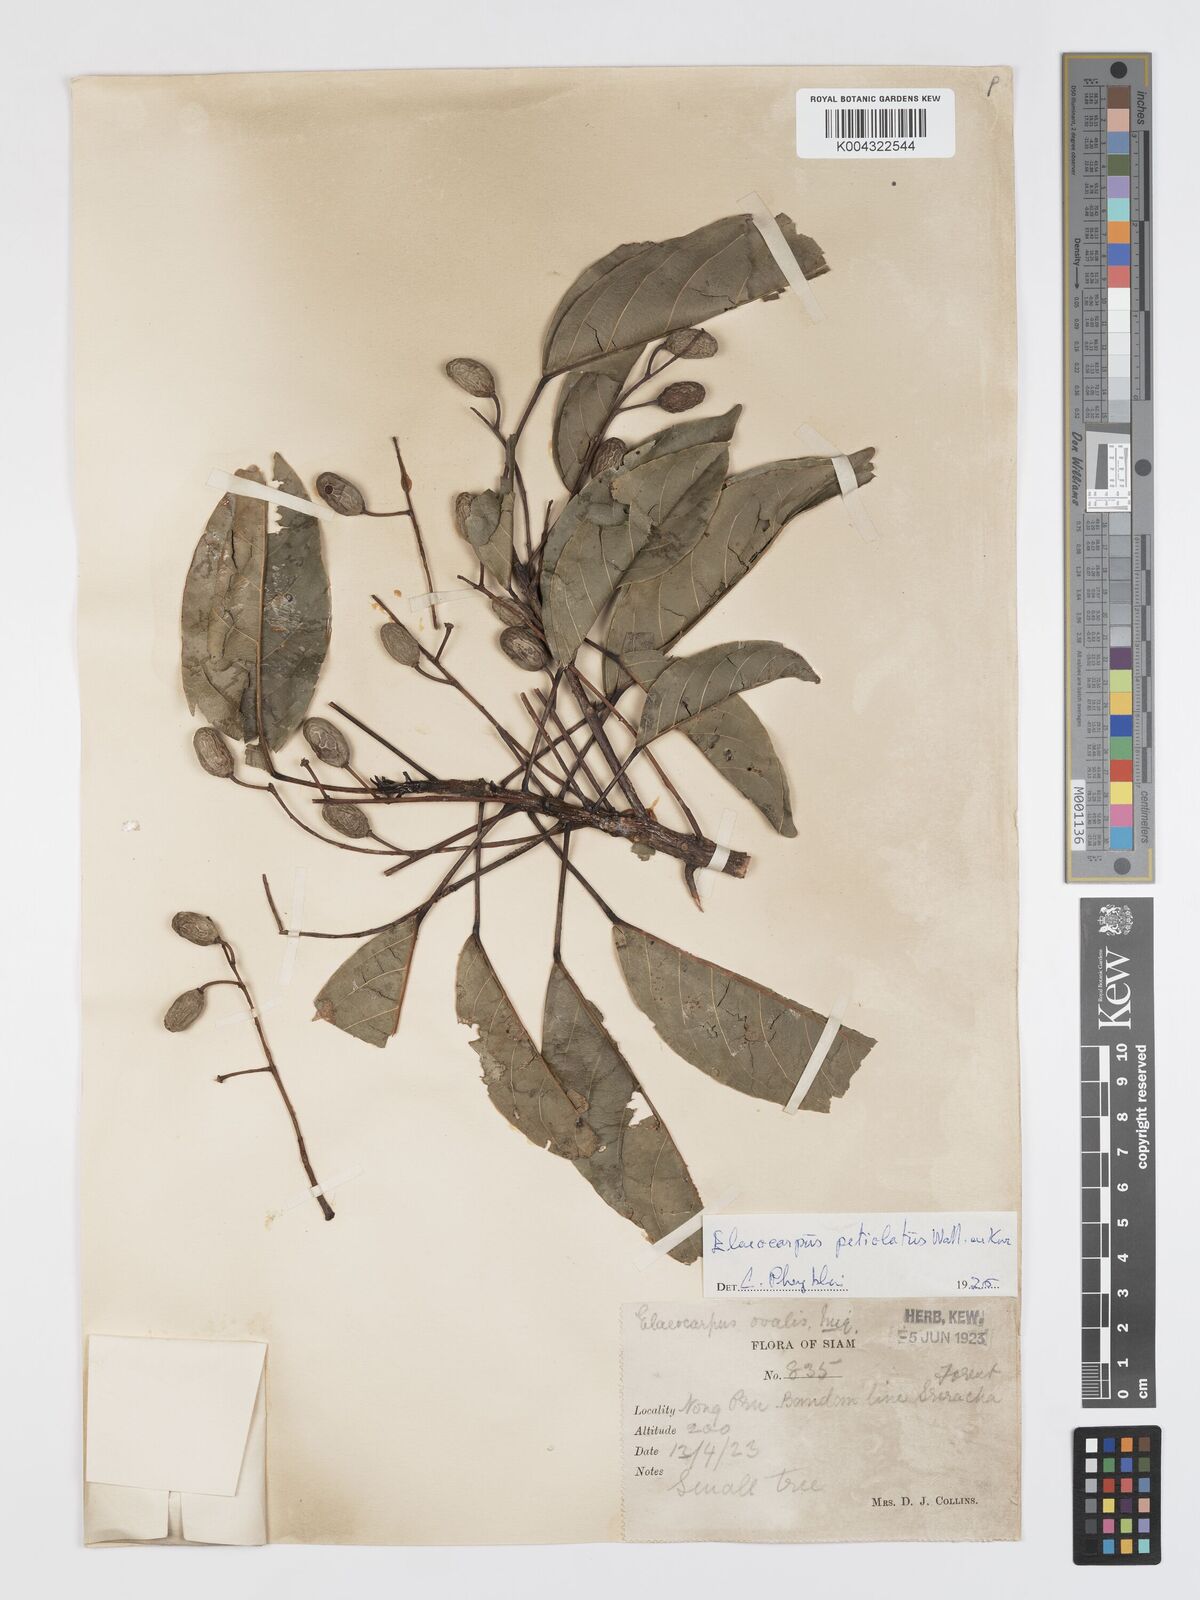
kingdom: Plantae
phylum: Tracheophyta
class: Magnoliopsida
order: Oxalidales
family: Elaeocarpaceae
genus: Elaeocarpus
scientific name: Elaeocarpus petiolatus
